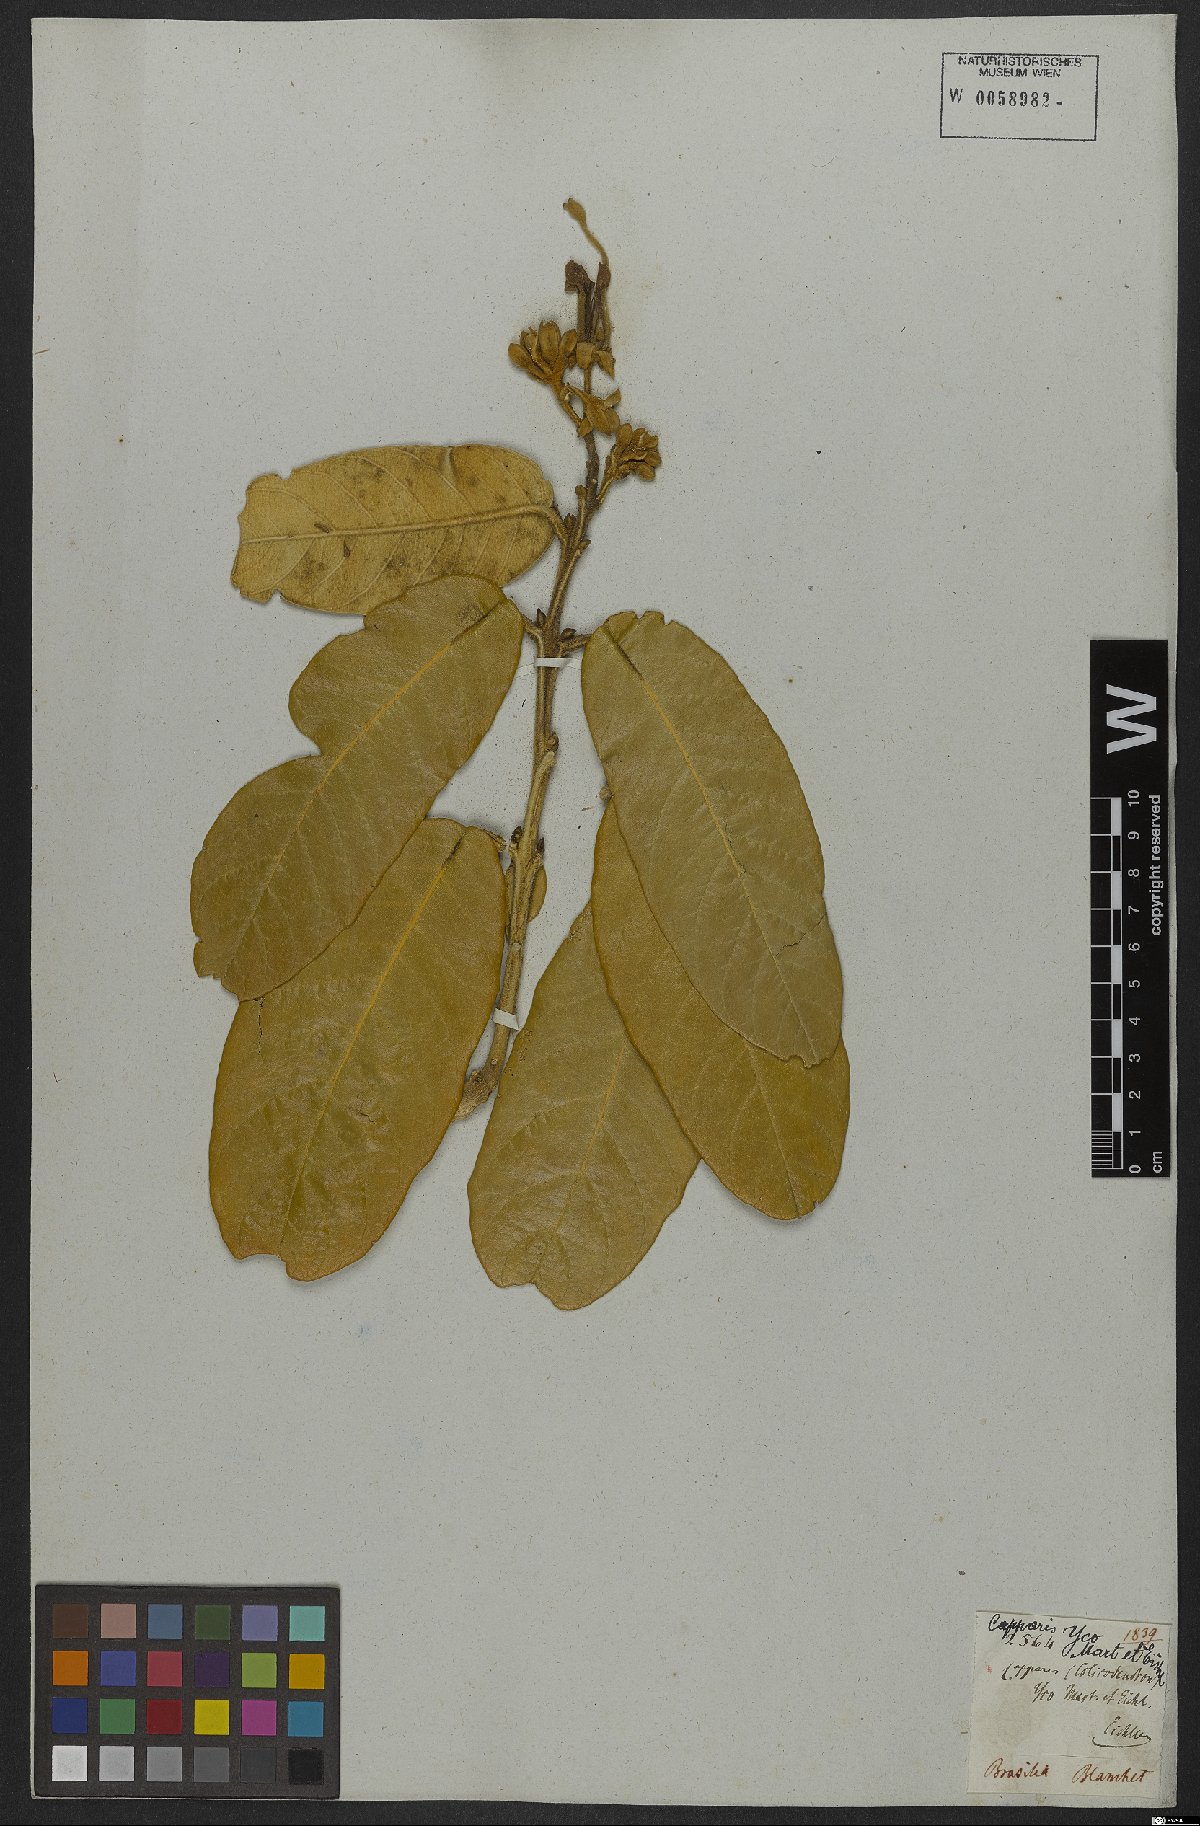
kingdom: Plantae
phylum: Tracheophyta
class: Magnoliopsida
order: Brassicales
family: Capparaceae
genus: Colicodendron
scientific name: Colicodendron yco
